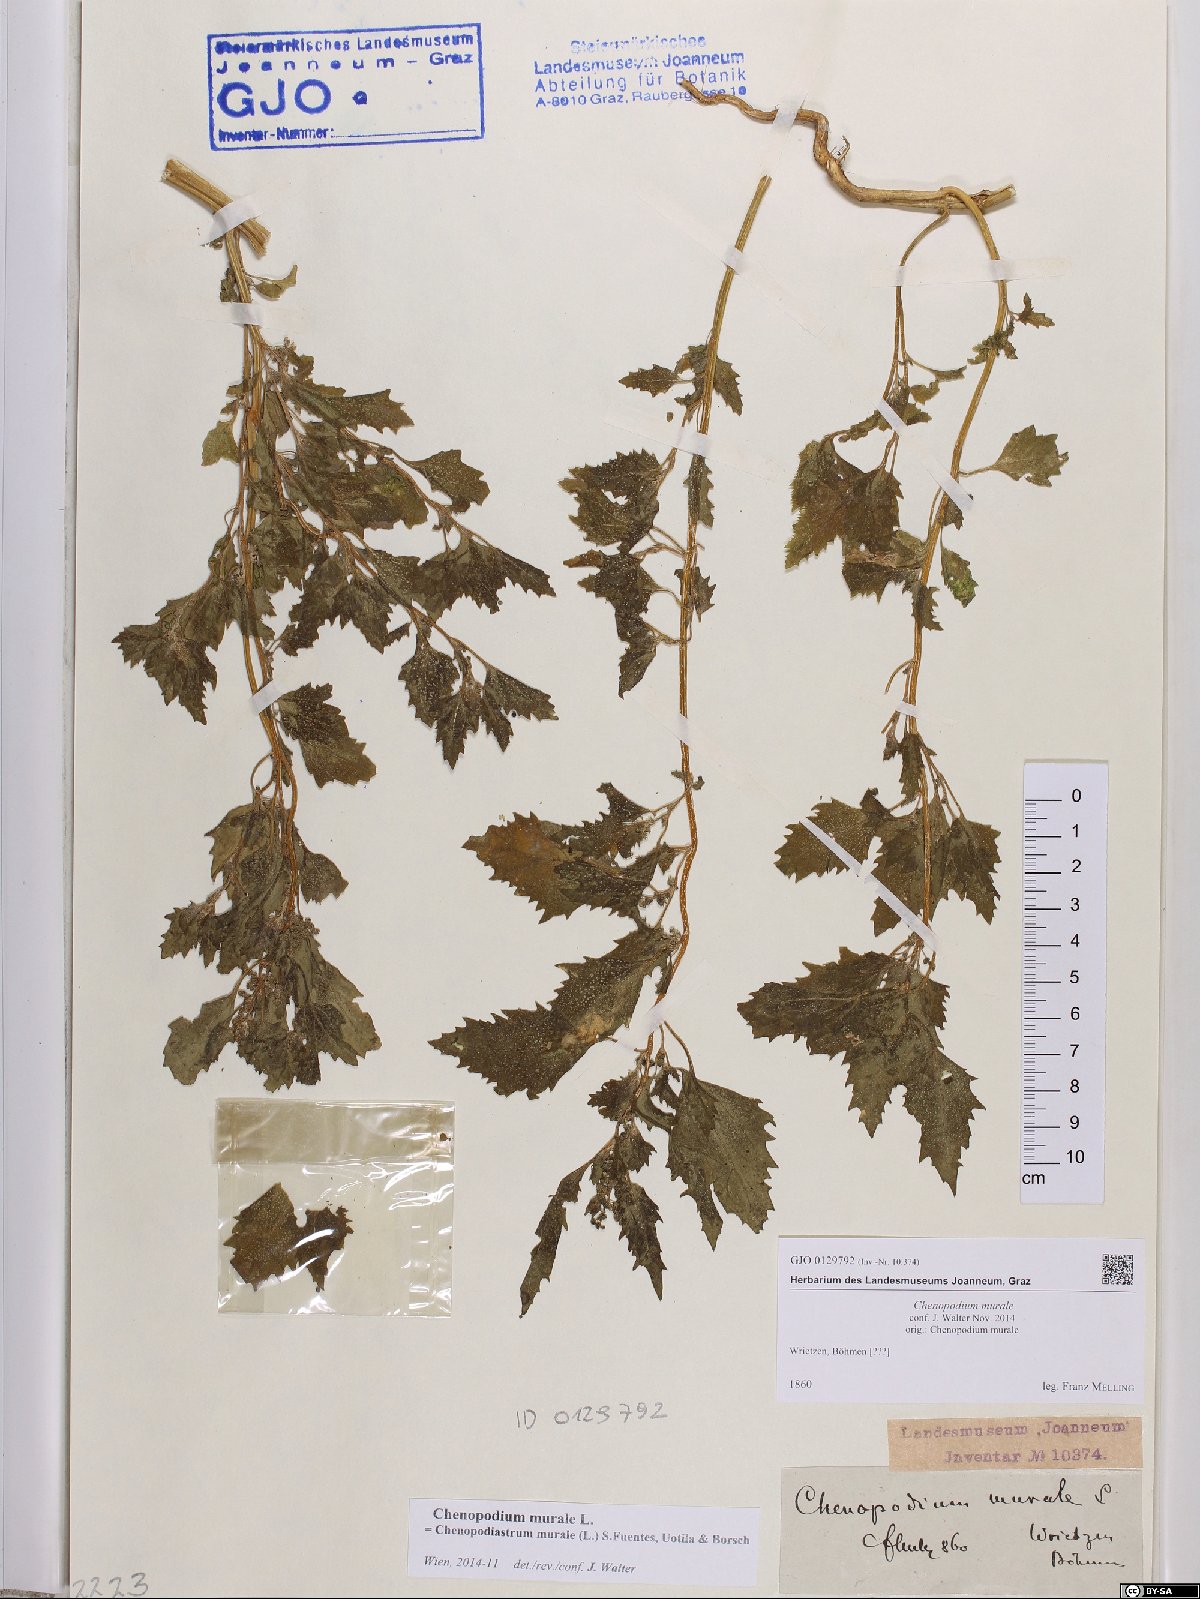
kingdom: Plantae
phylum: Tracheophyta
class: Magnoliopsida
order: Caryophyllales
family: Amaranthaceae
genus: Chenopodiastrum
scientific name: Chenopodiastrum murale
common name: Sowbane
